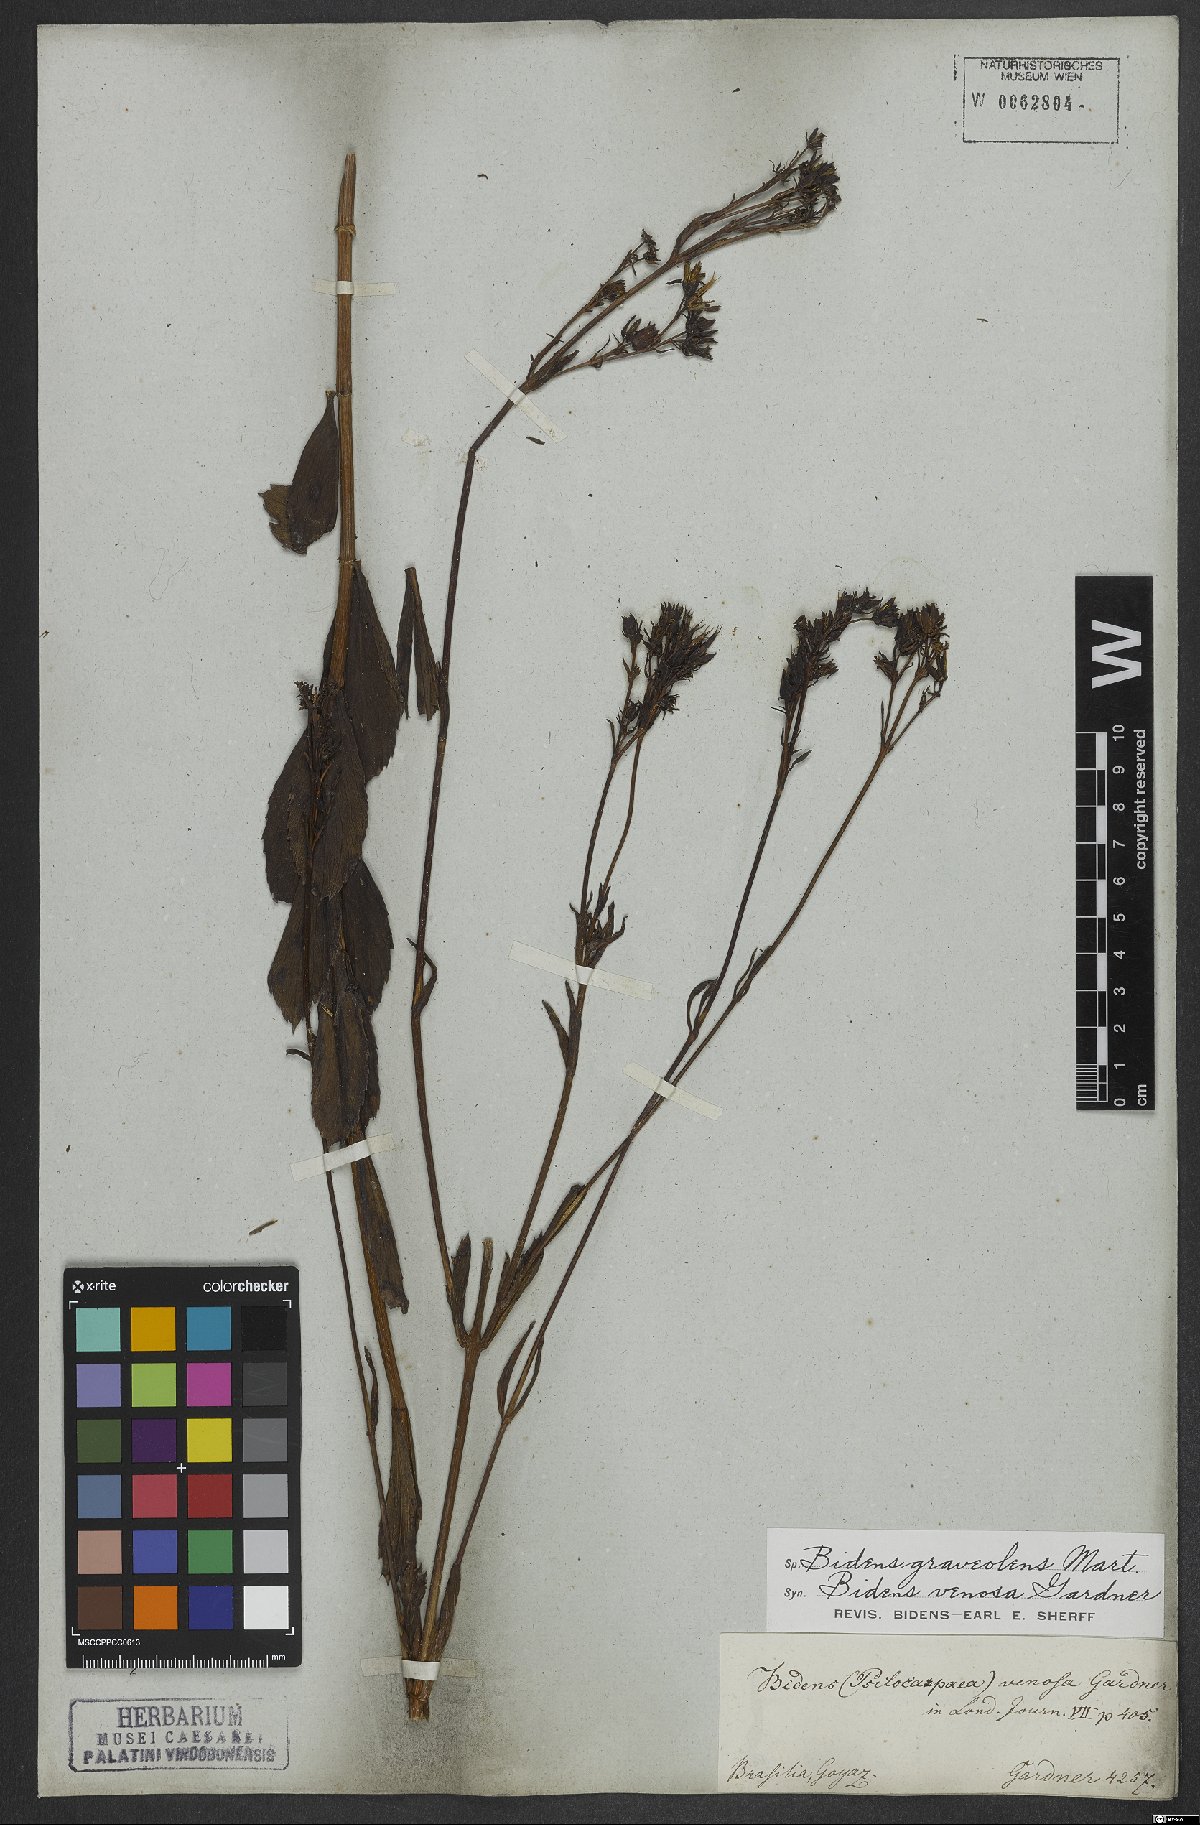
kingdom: Plantae
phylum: Tracheophyta
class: Magnoliopsida
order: Asterales
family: Asteraceae
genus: Bidens
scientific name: Bidens graveolens
